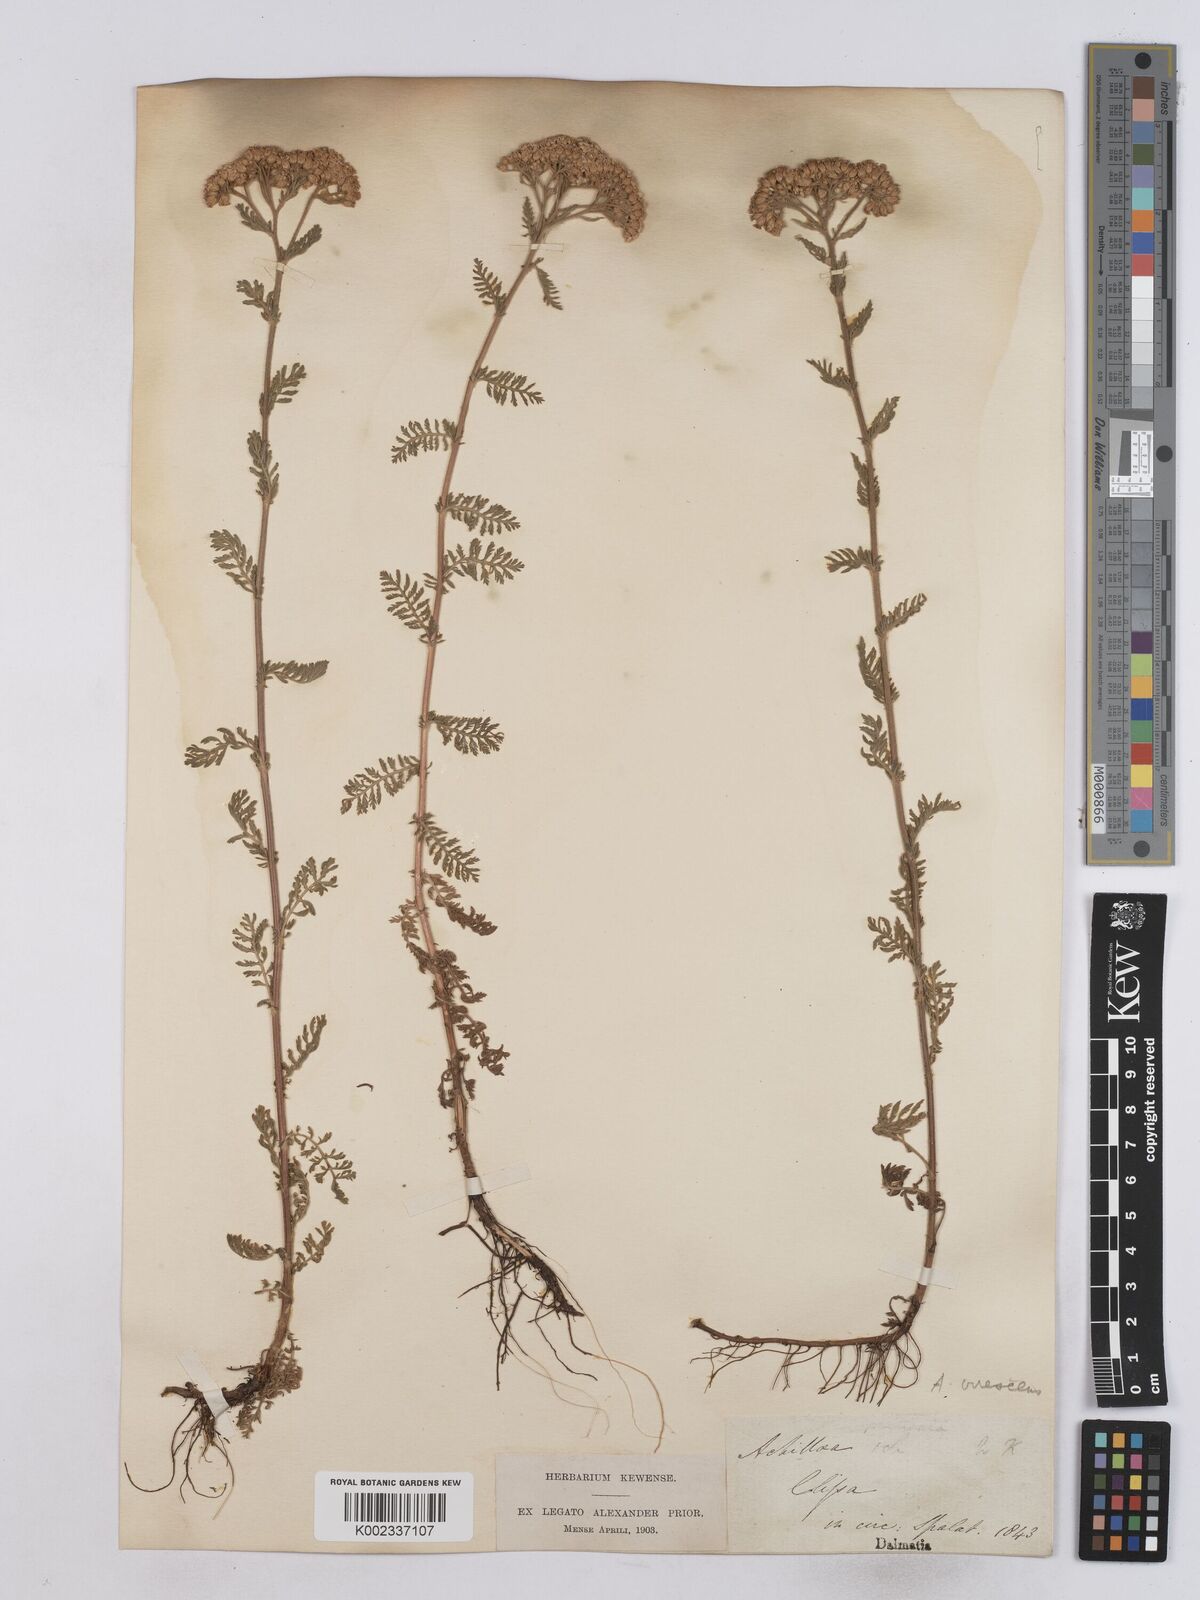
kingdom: Plantae
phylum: Tracheophyta
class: Magnoliopsida
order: Asterales
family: Asteraceae
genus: Achillea
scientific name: Achillea virescens
